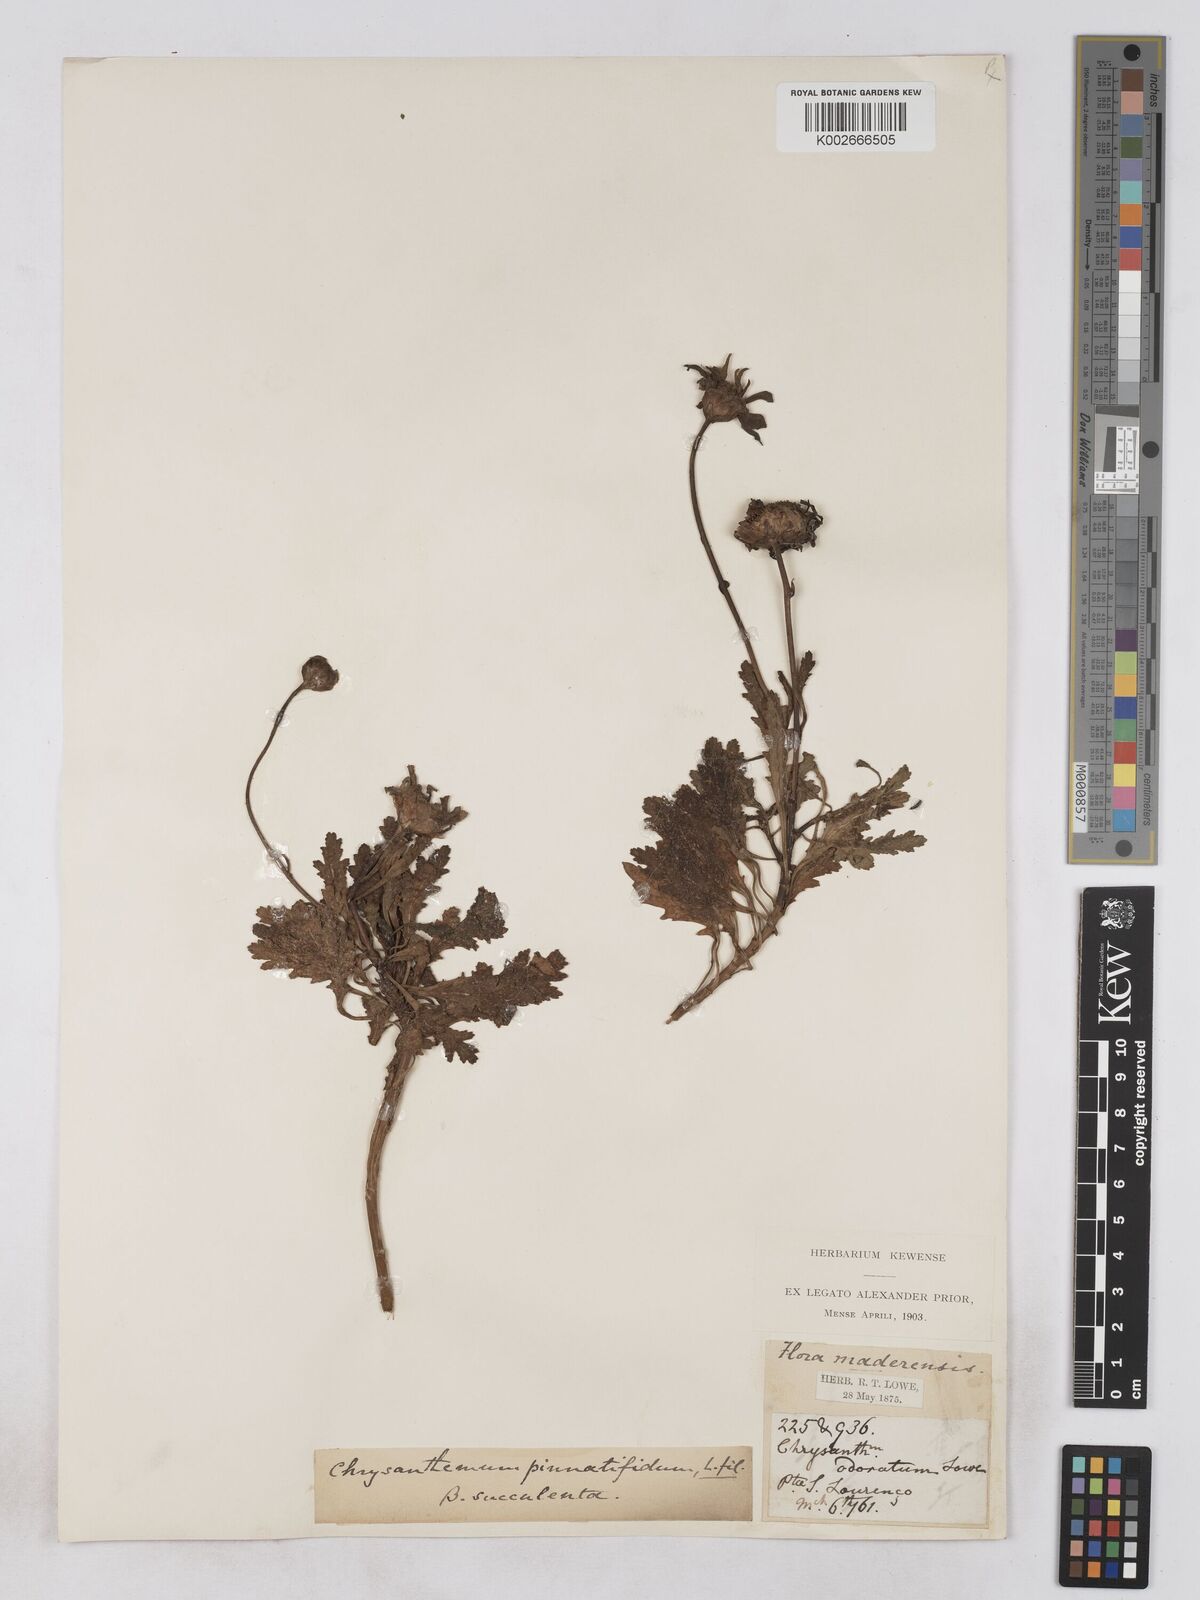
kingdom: Plantae
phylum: Tracheophyta
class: Magnoliopsida
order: Asterales
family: Asteraceae
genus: Argyranthemum
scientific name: Argyranthemum pinnatifidum
